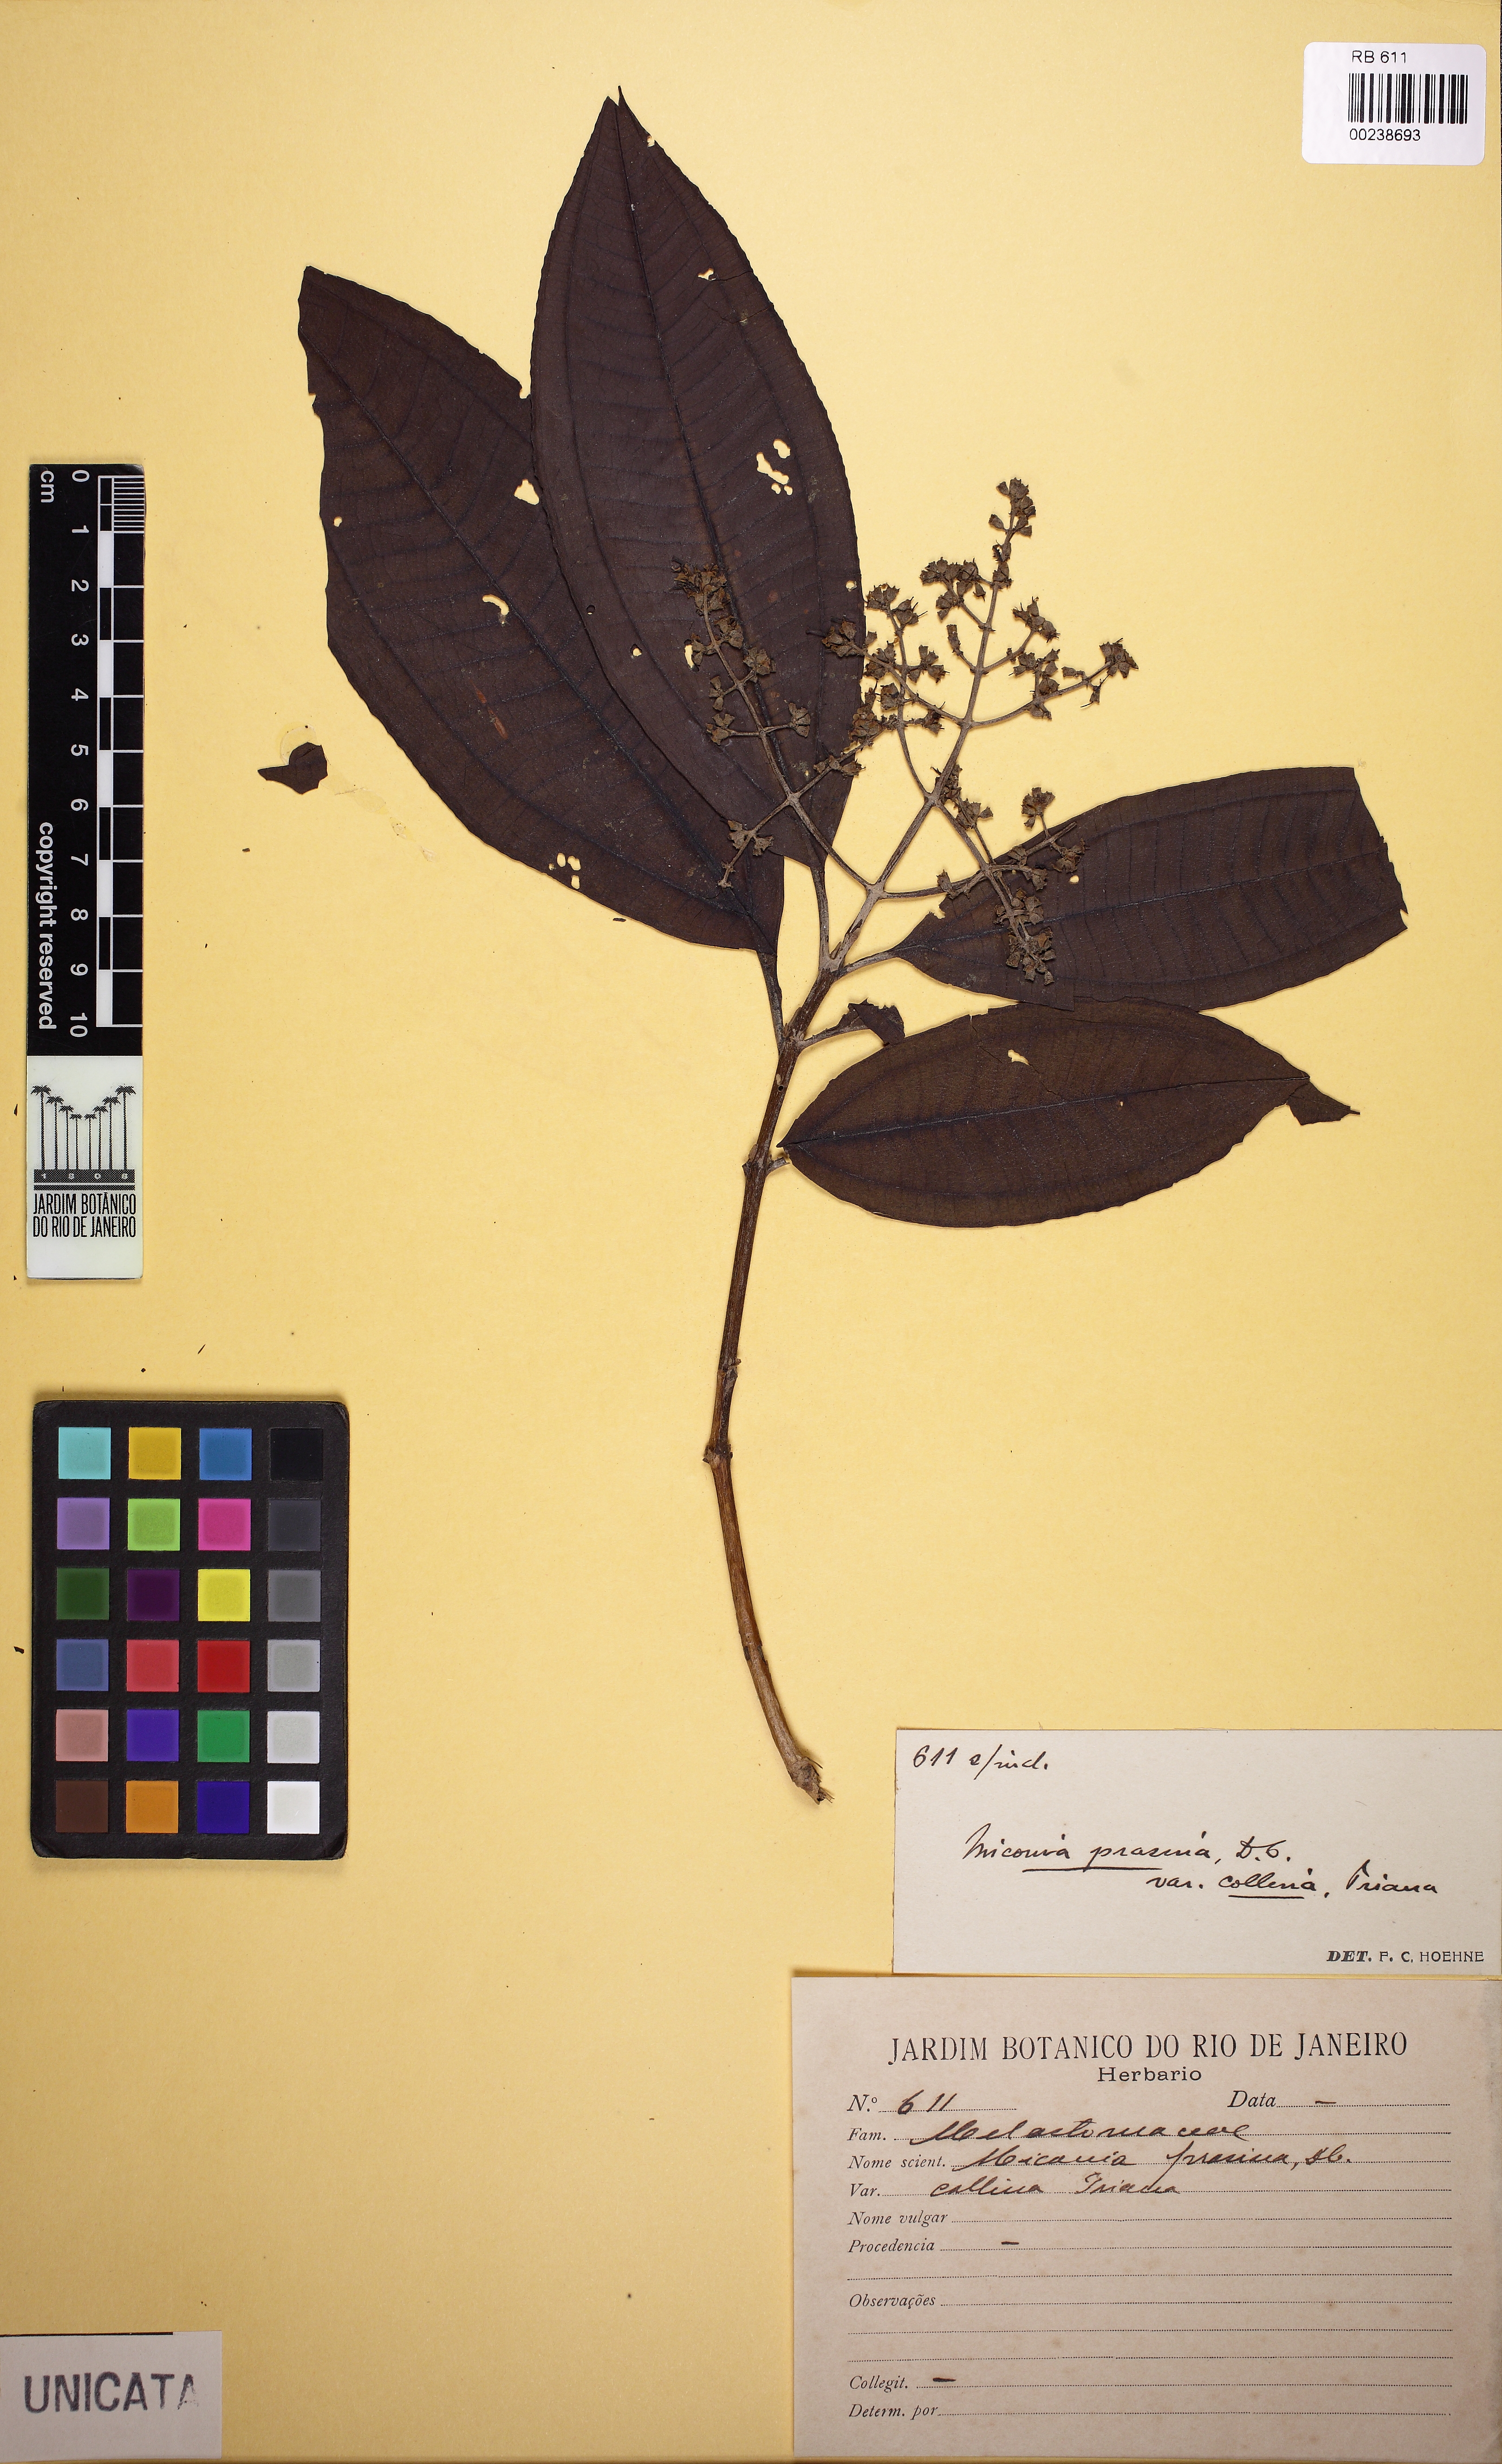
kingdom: Plantae
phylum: Tracheophyta
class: Magnoliopsida
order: Myrtales
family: Melastomataceae
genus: Miconia
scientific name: Miconia prasina
